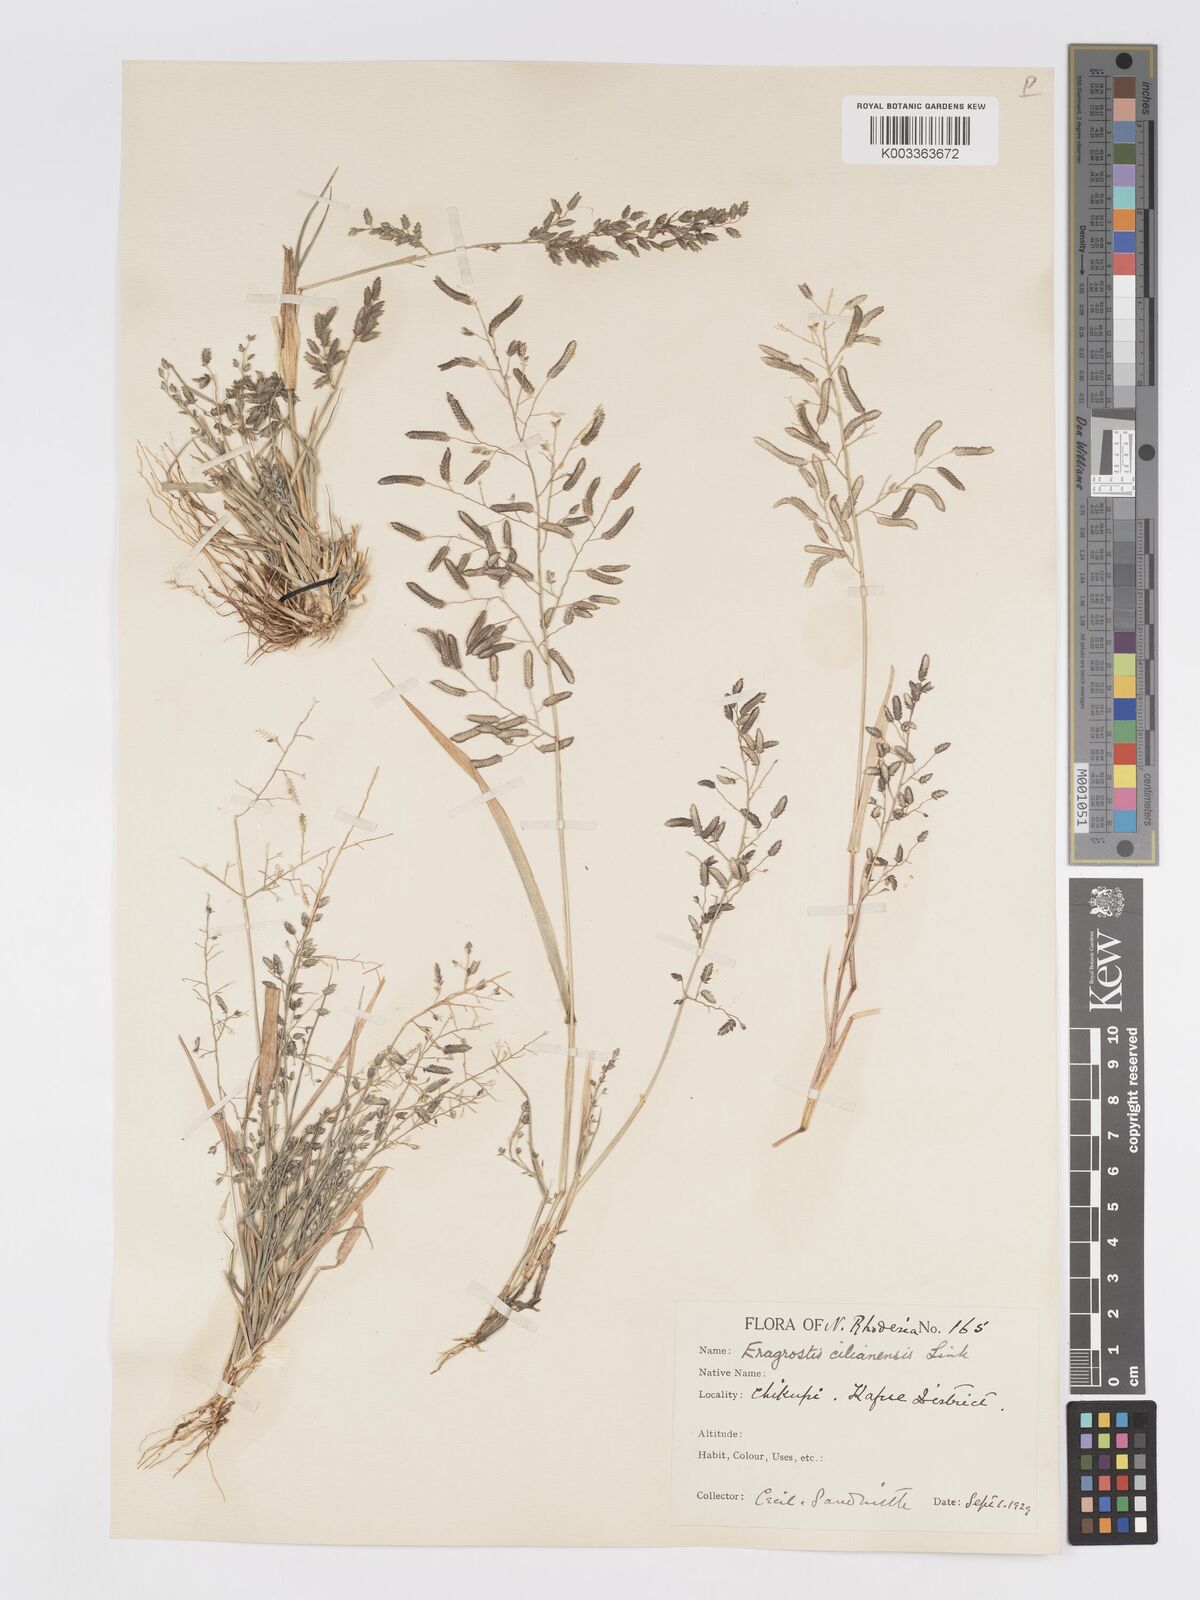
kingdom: Plantae
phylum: Tracheophyta
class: Liliopsida
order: Poales
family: Poaceae
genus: Eragrostis
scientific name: Eragrostis cilianensis
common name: Stinkgrass
